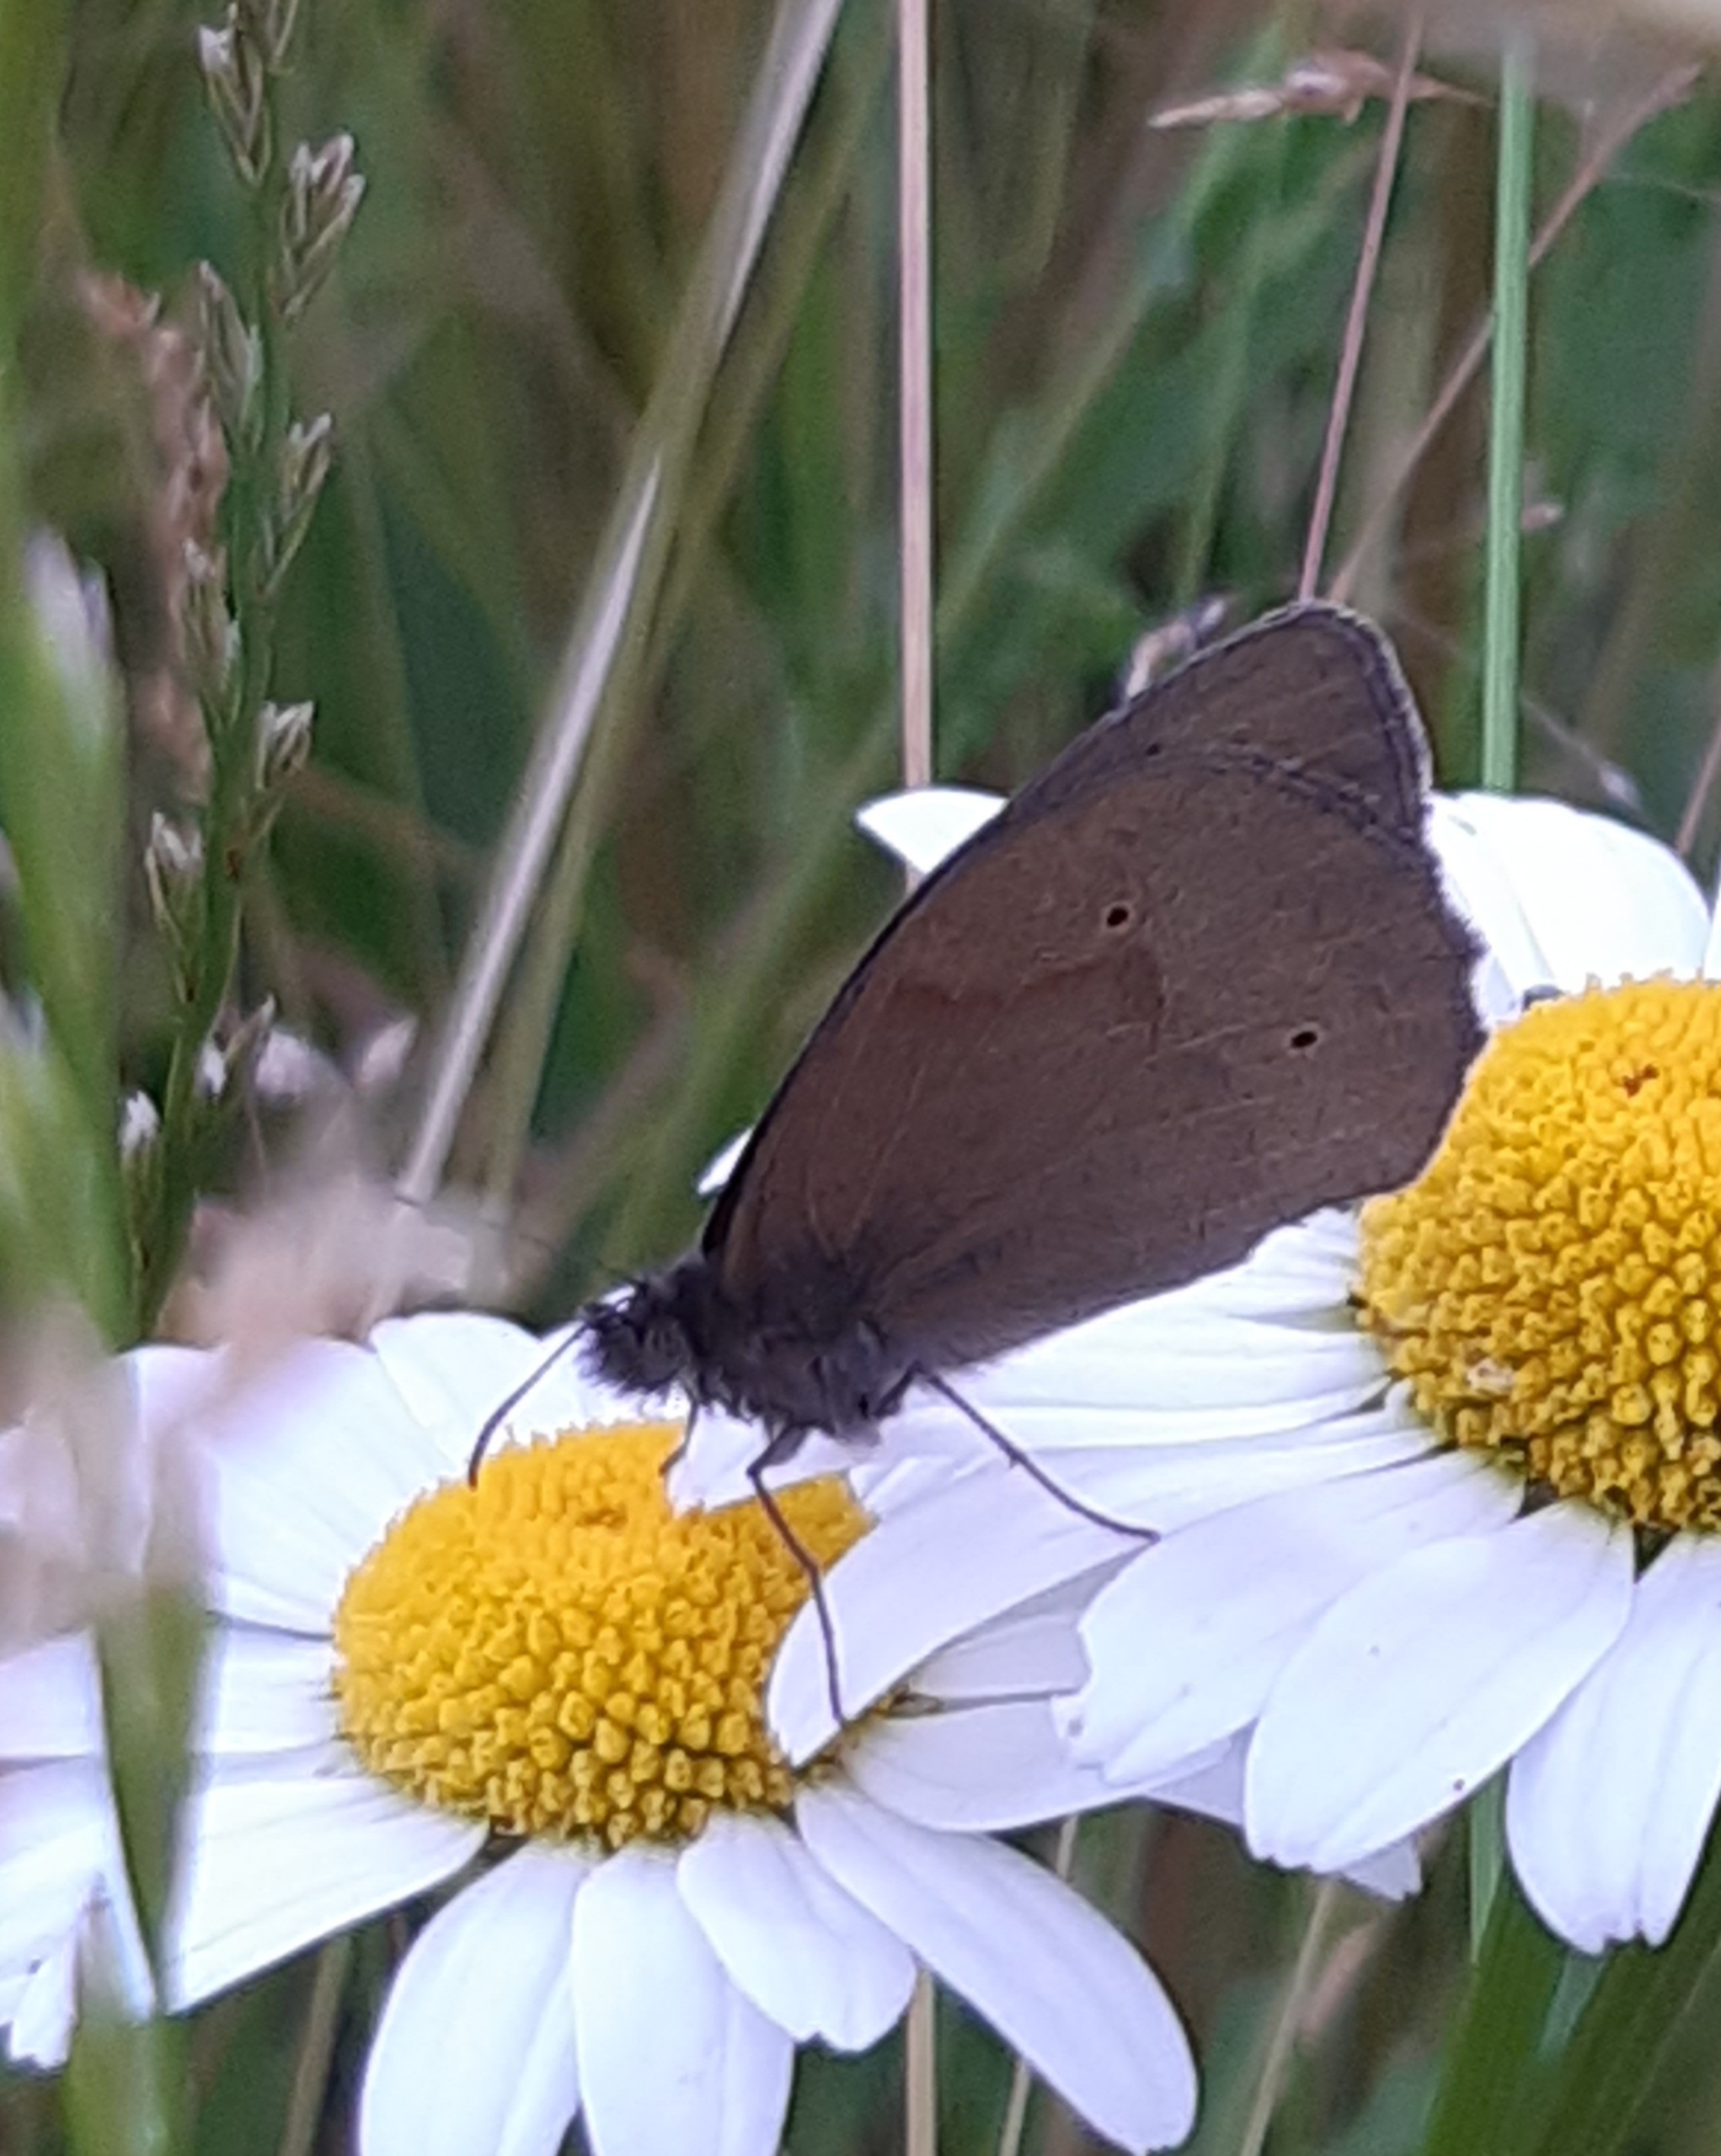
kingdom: Animalia
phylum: Arthropoda
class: Insecta
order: Lepidoptera
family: Nymphalidae
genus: Maniola
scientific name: Maniola jurtina
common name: Græsrandøje
